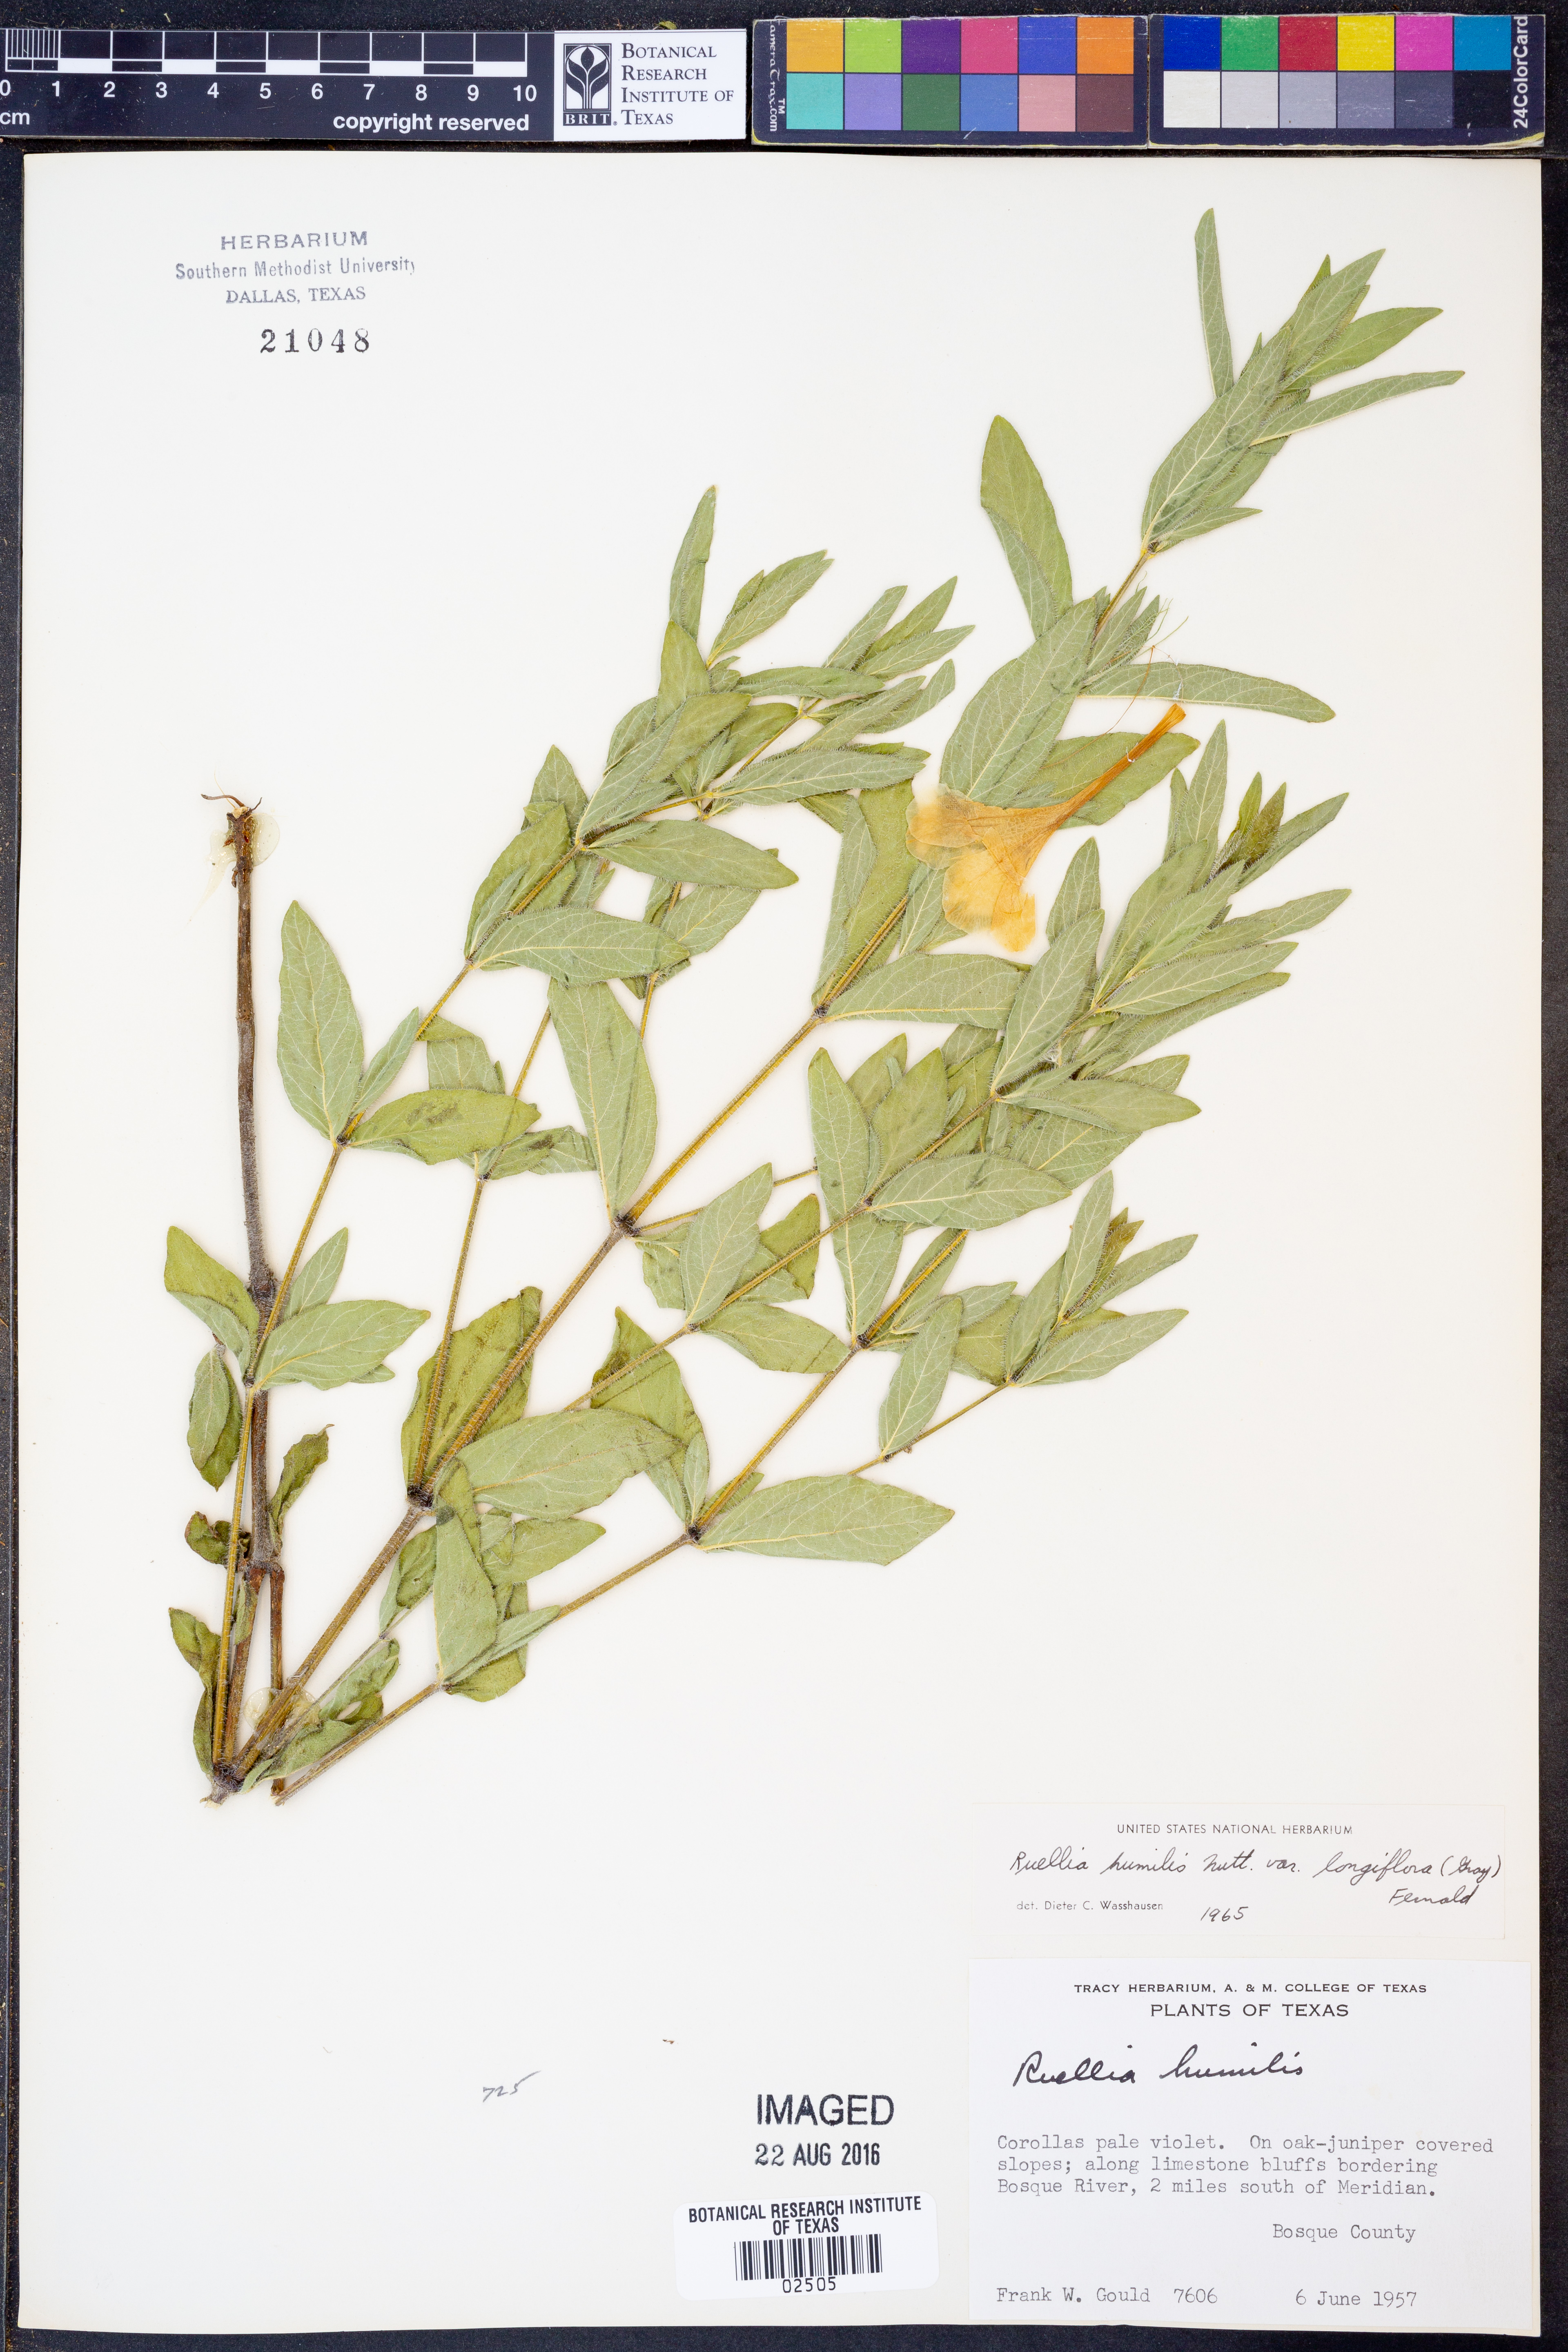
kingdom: Plantae
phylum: Tracheophyta
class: Magnoliopsida
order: Lamiales
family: Acanthaceae
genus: Ruellia
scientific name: Ruellia humilis
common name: Fringe-leaf ruellia
